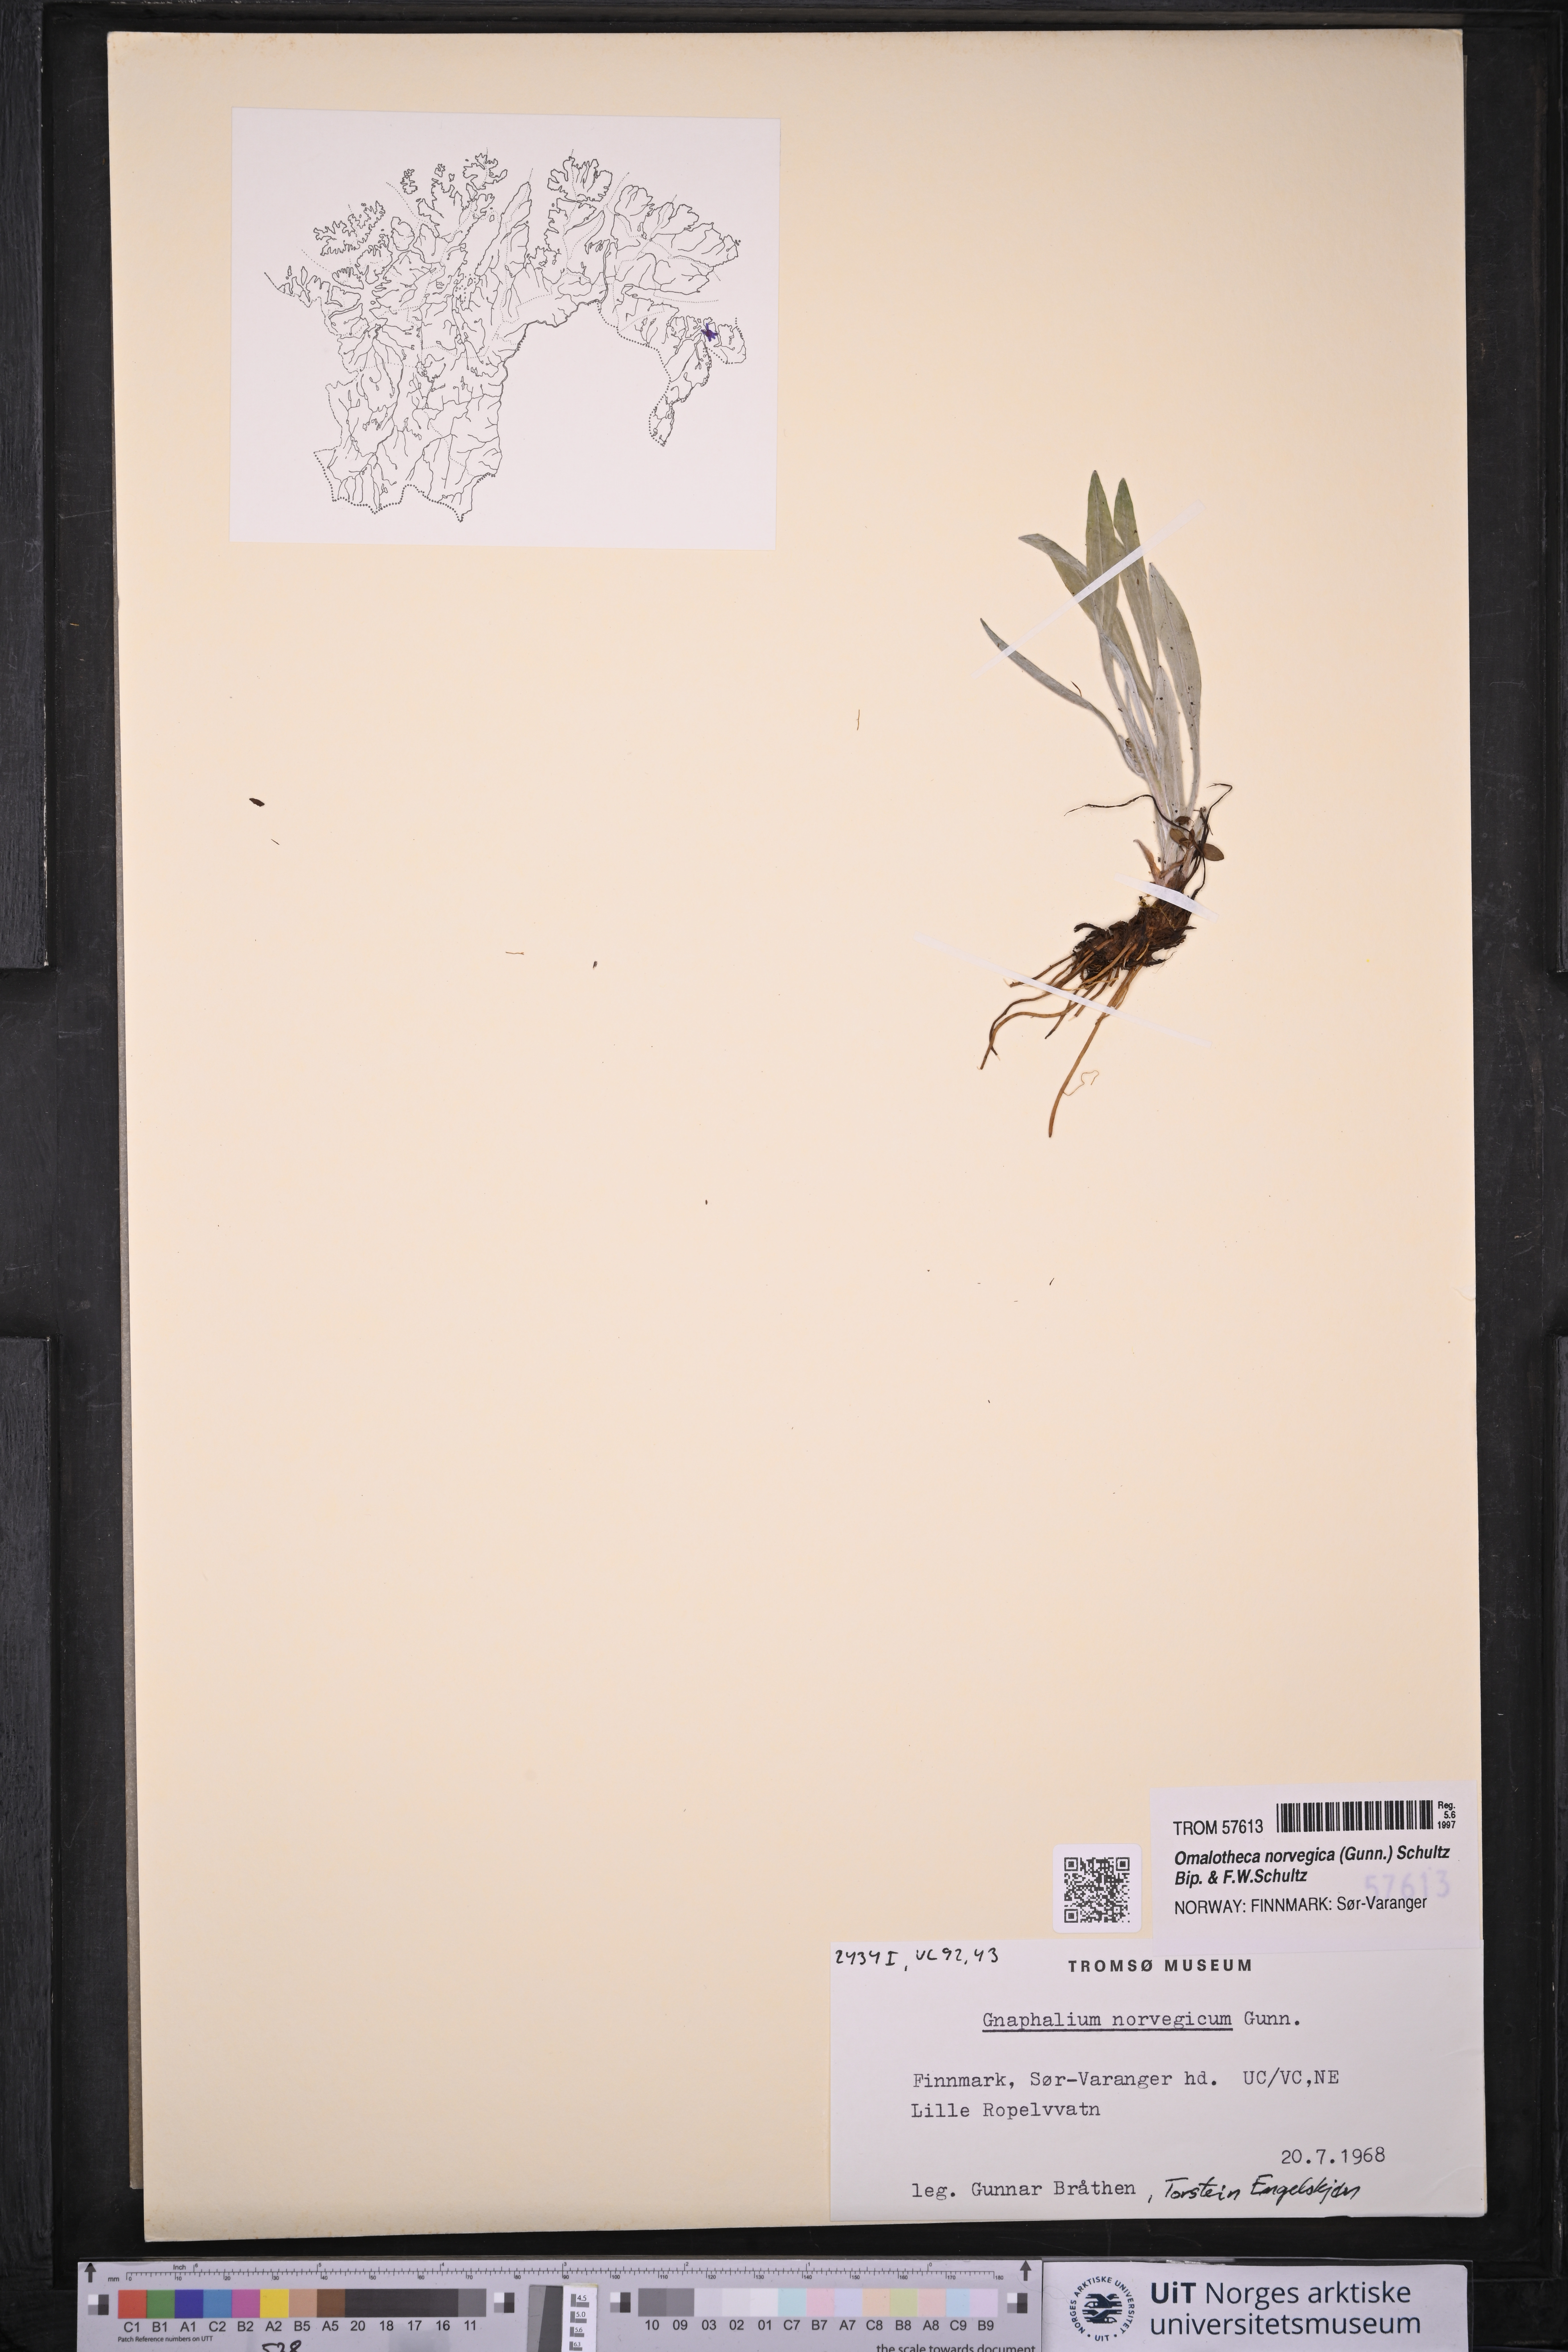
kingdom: Plantae
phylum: Tracheophyta
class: Magnoliopsida
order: Asterales
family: Asteraceae
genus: Omalotheca
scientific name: Omalotheca norvegica
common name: Norwegian arctic-cudweed
